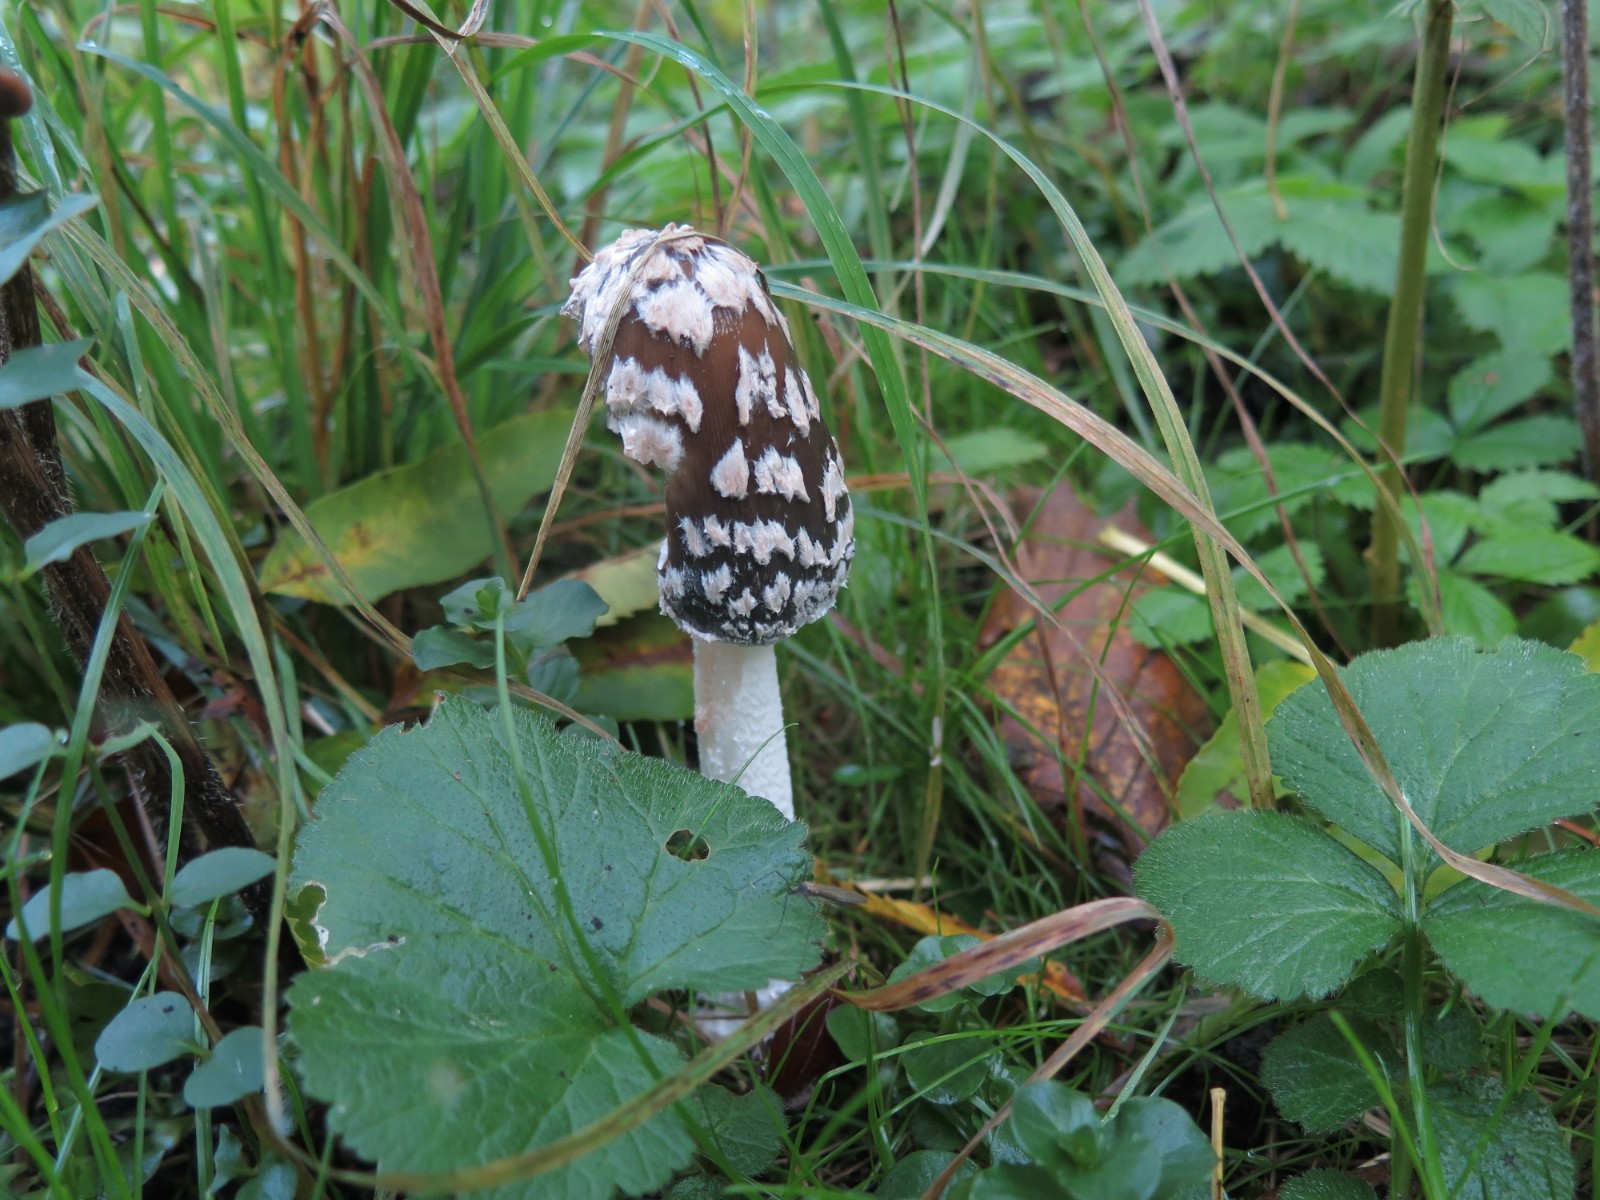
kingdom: Fungi
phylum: Basidiomycota
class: Agaricomycetes
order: Agaricales
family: Psathyrellaceae
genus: Coprinopsis
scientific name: Coprinopsis picacea
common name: skade-blækhat
